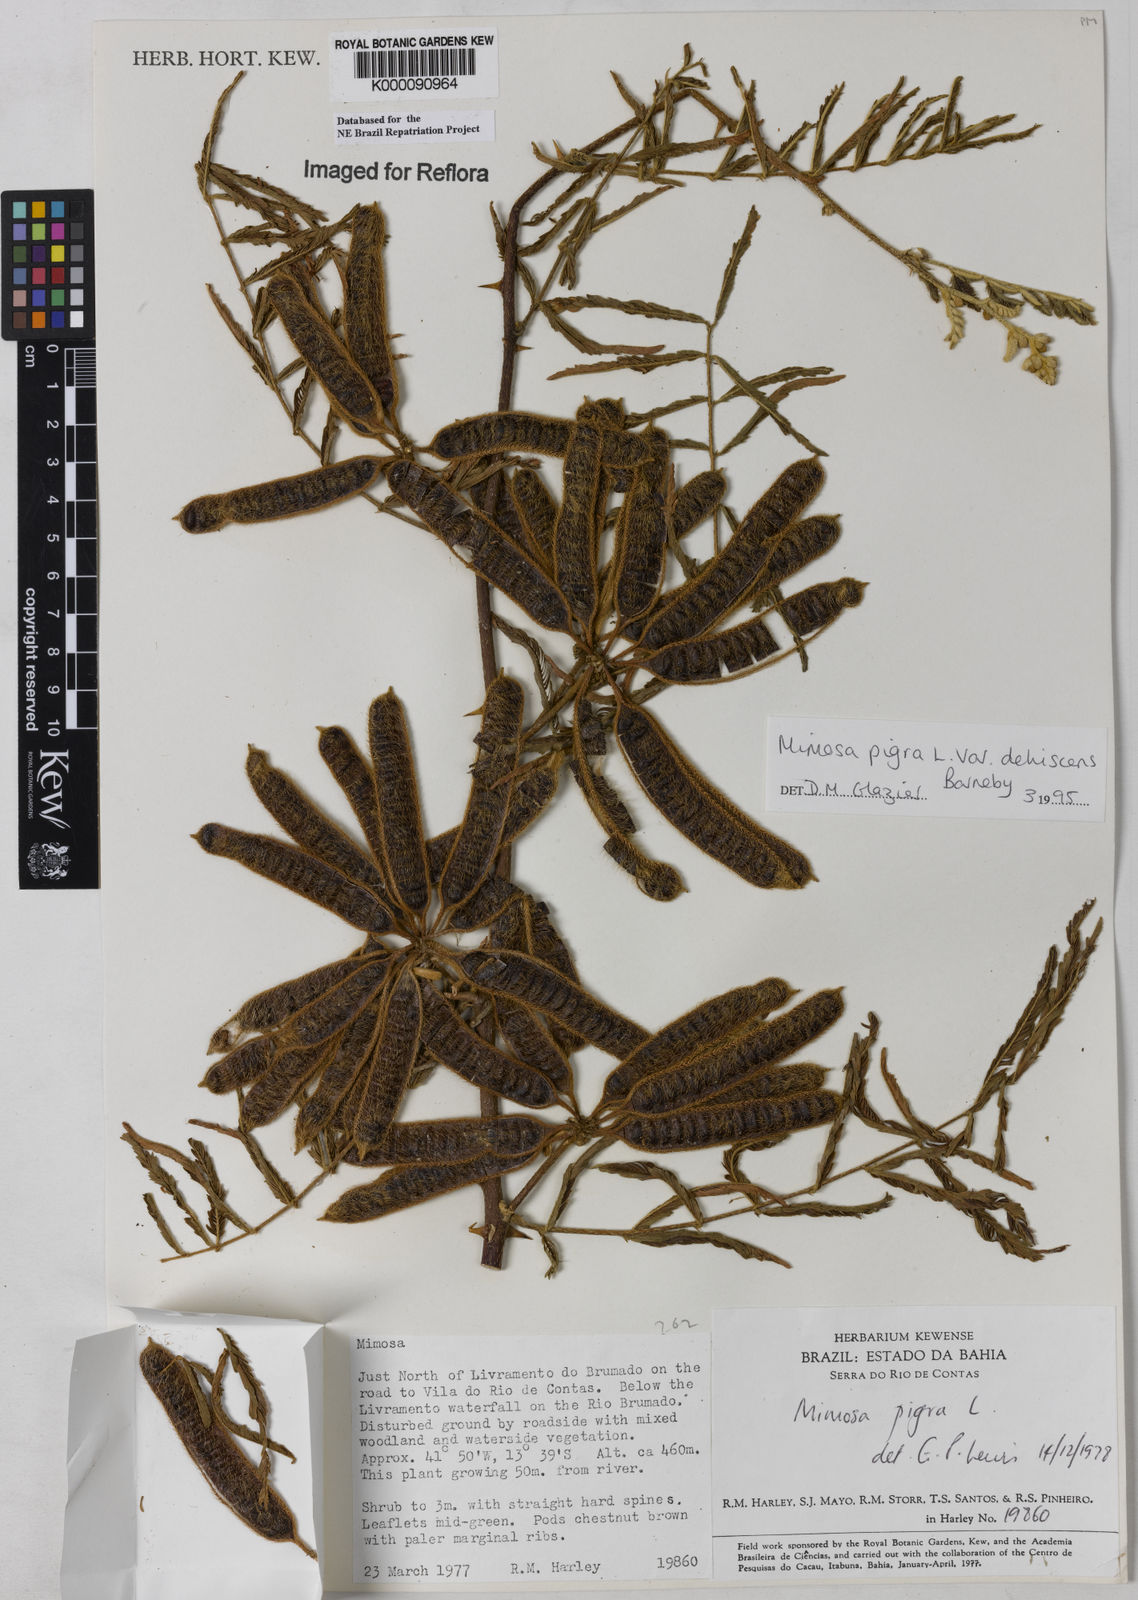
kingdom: Plantae
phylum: Tracheophyta
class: Magnoliopsida
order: Fabales
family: Fabaceae
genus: Mimosa
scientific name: Mimosa pigra
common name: Black mimosa
